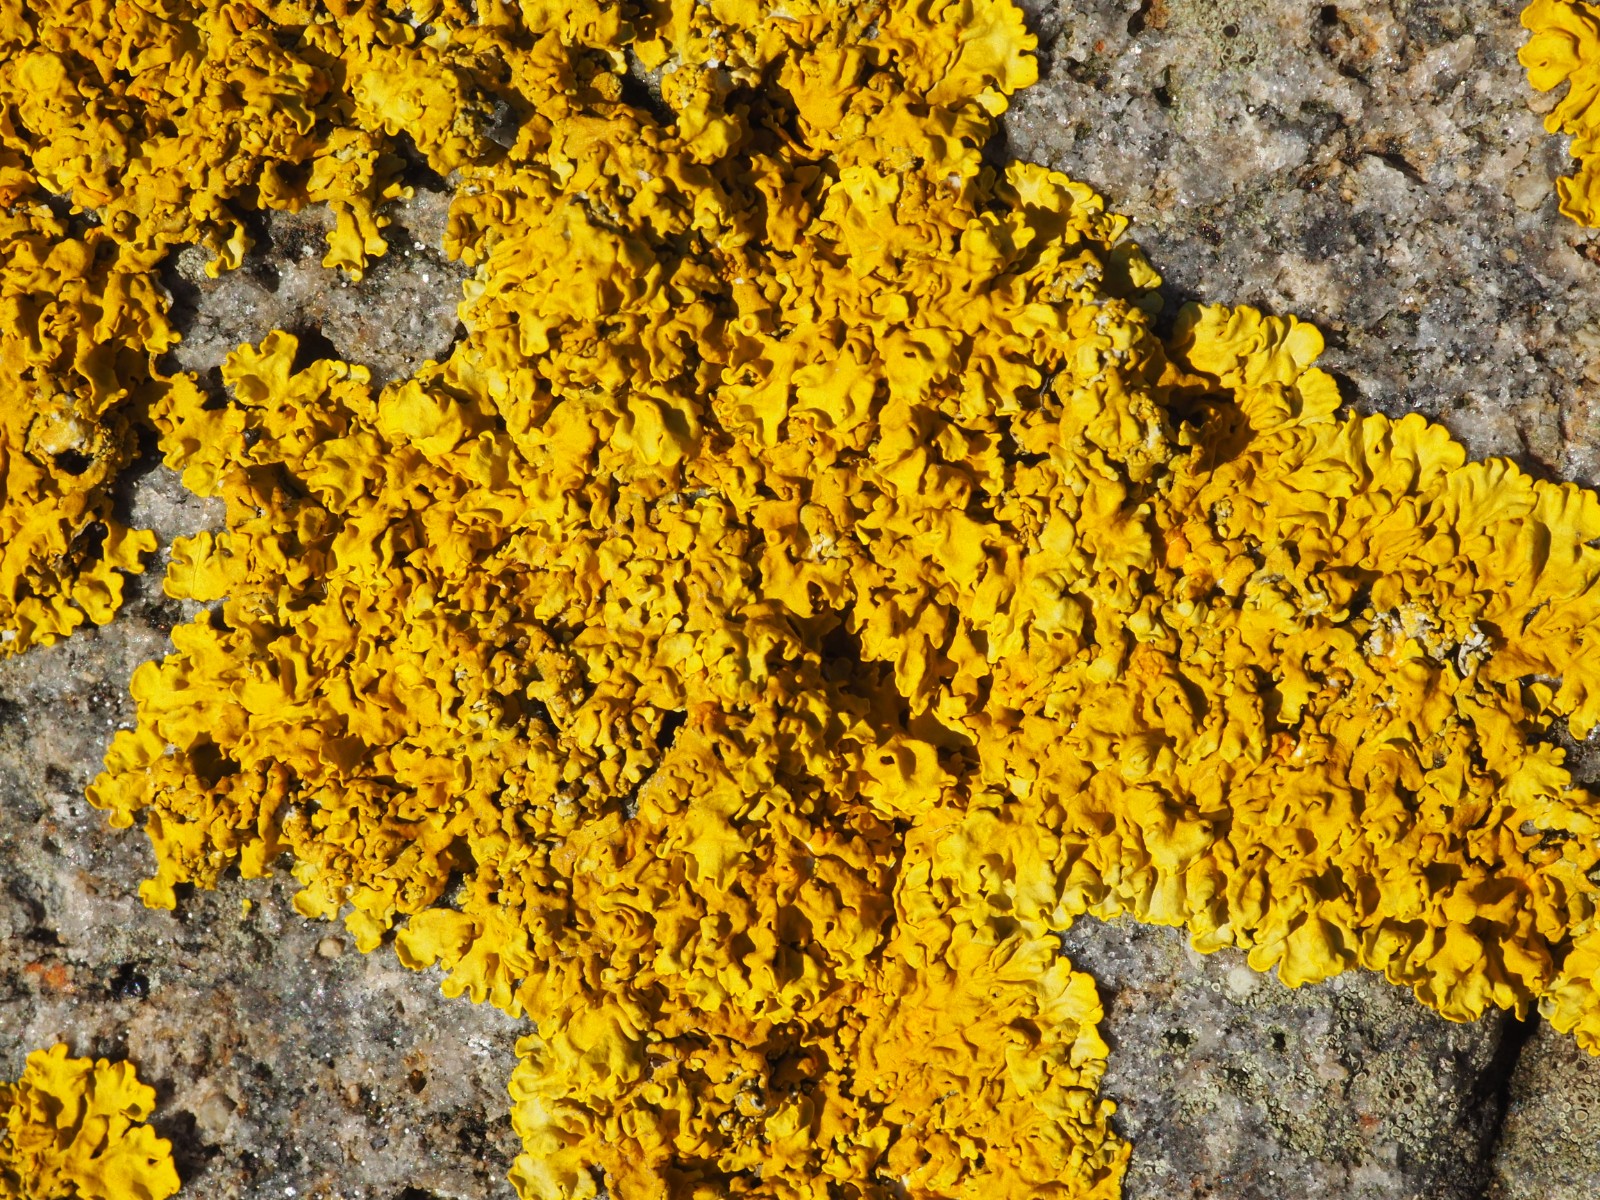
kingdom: Fungi
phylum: Ascomycota
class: Lecanoromycetes
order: Teloschistales
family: Teloschistaceae
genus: Xanthoria
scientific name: Xanthoria aureola
